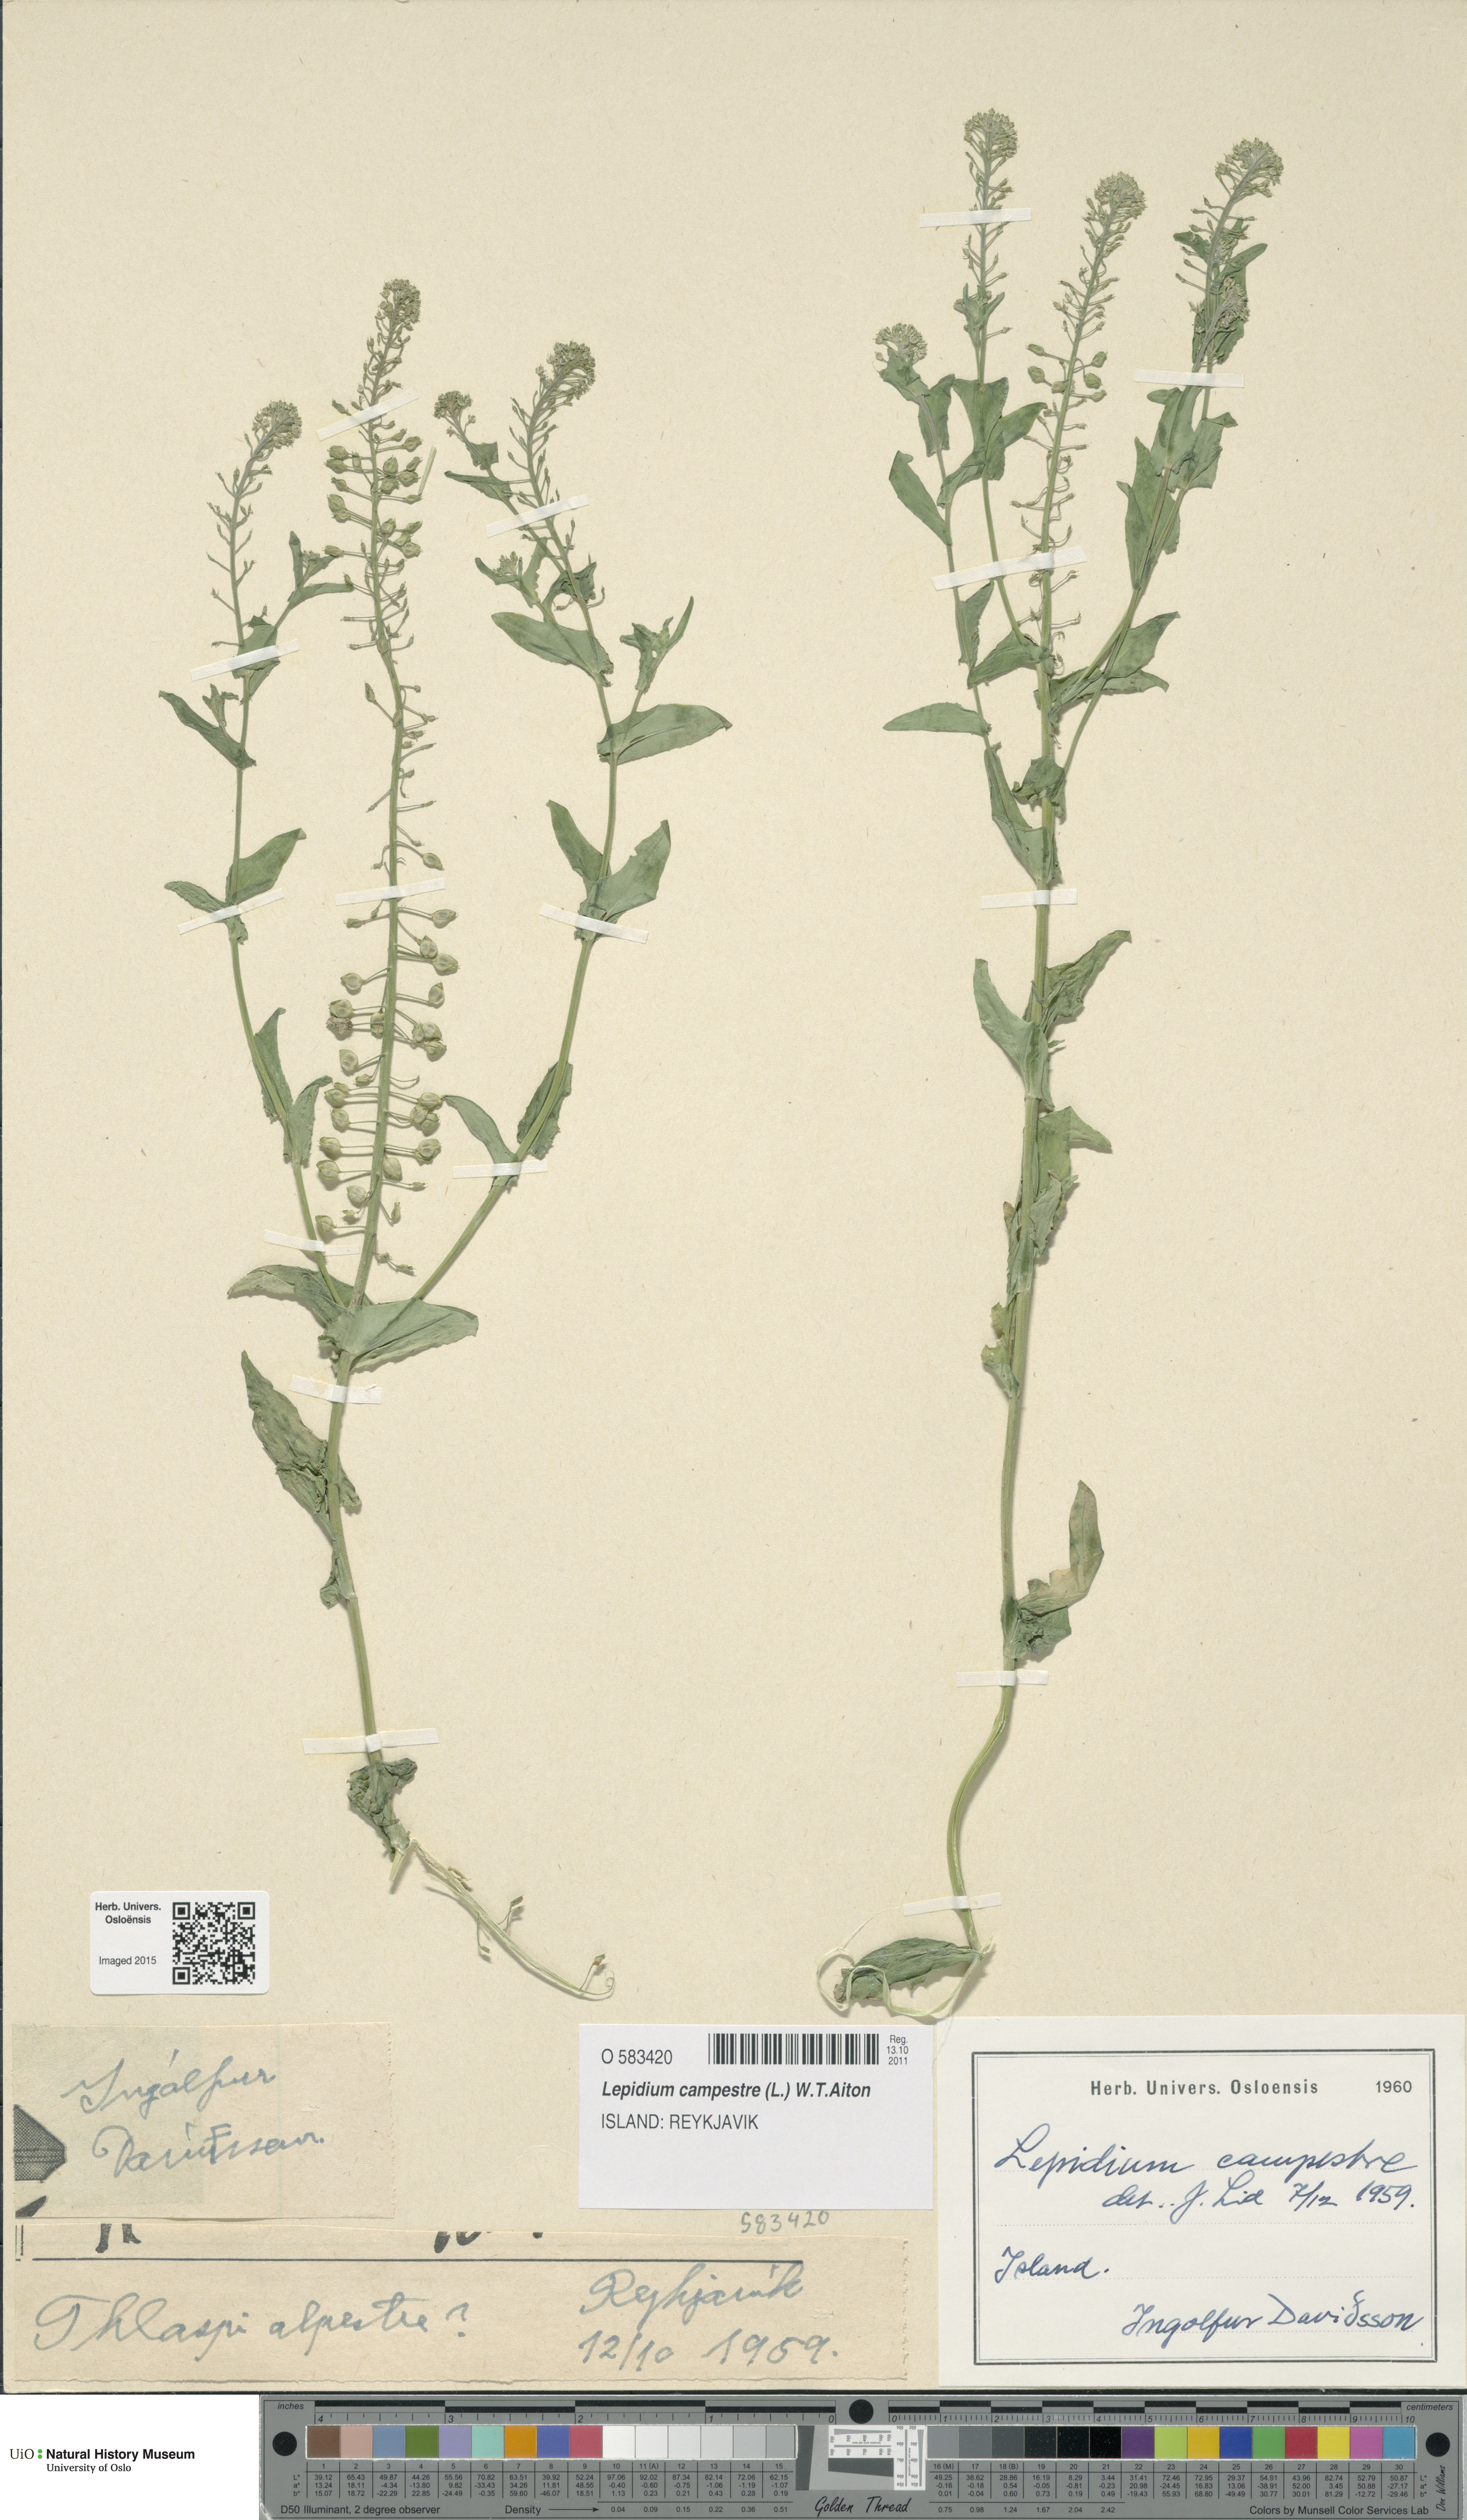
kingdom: Plantae
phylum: Tracheophyta
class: Magnoliopsida
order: Brassicales
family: Brassicaceae
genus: Lepidium
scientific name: Lepidium campestre
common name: Field pepperwort
